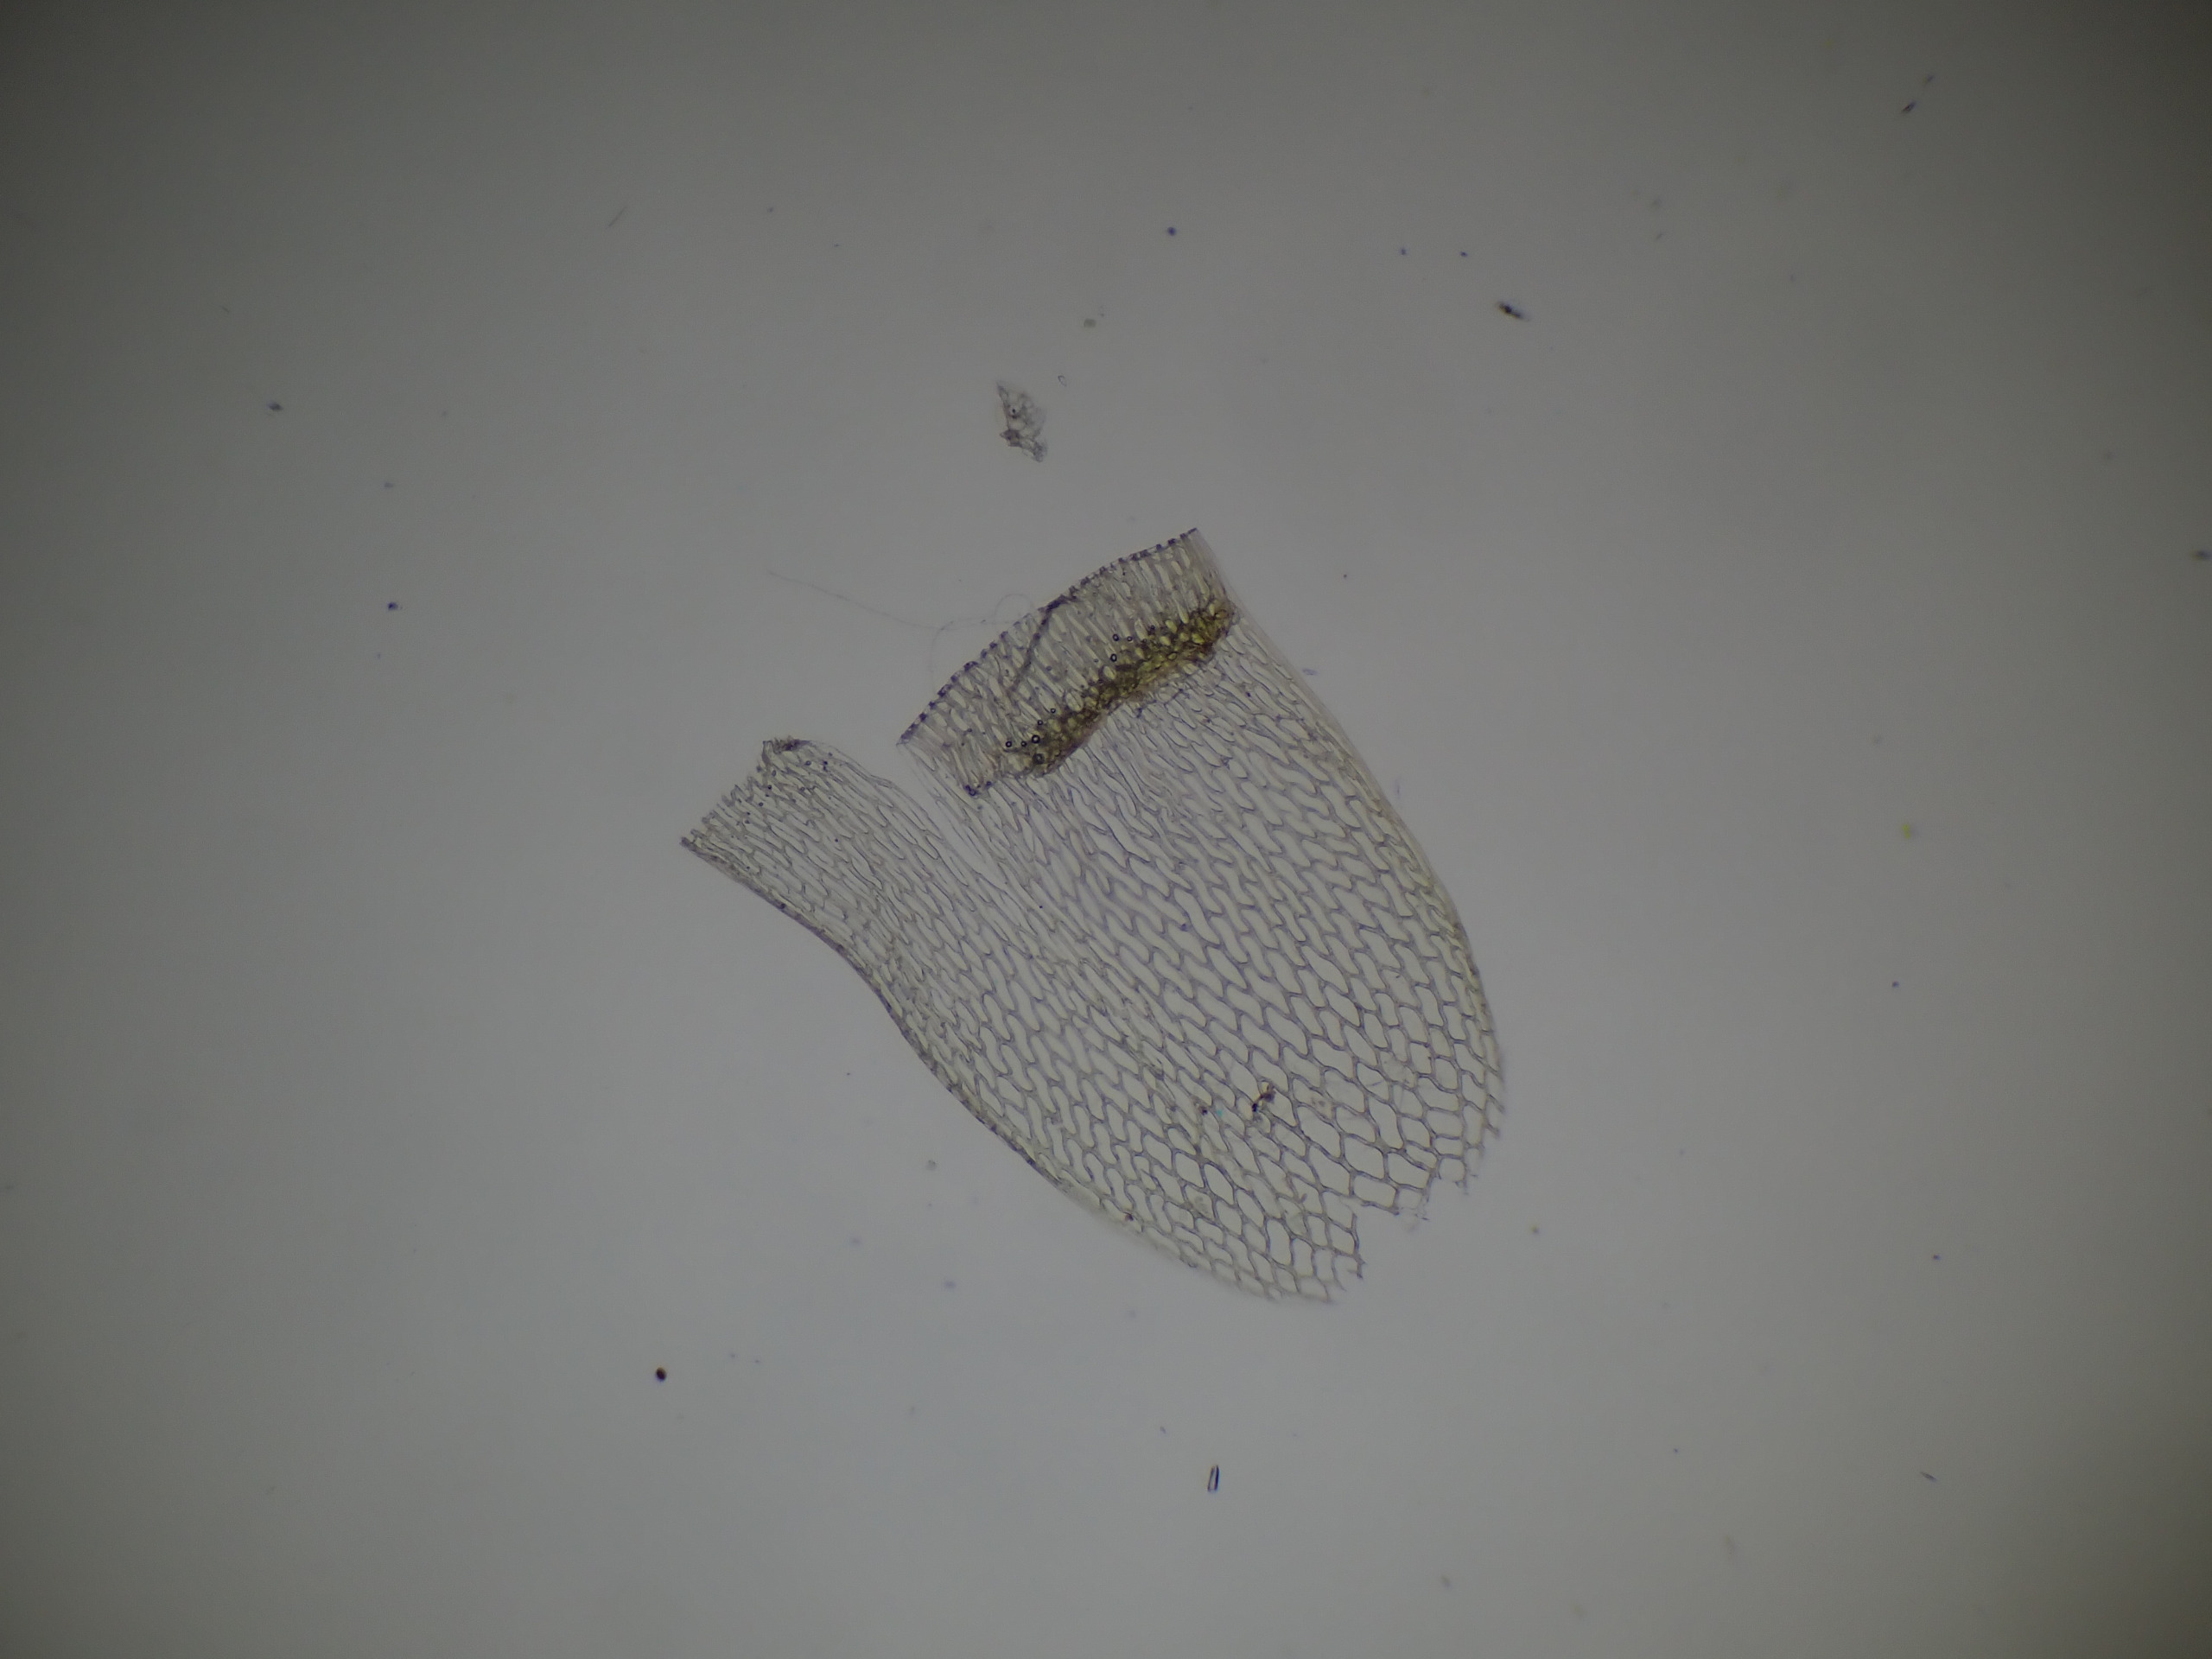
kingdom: Plantae
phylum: Bryophyta
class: Sphagnopsida
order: Sphagnales
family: Sphagnaceae
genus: Sphagnum
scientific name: Sphagnum teres
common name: Trindgrenet tørvemos
